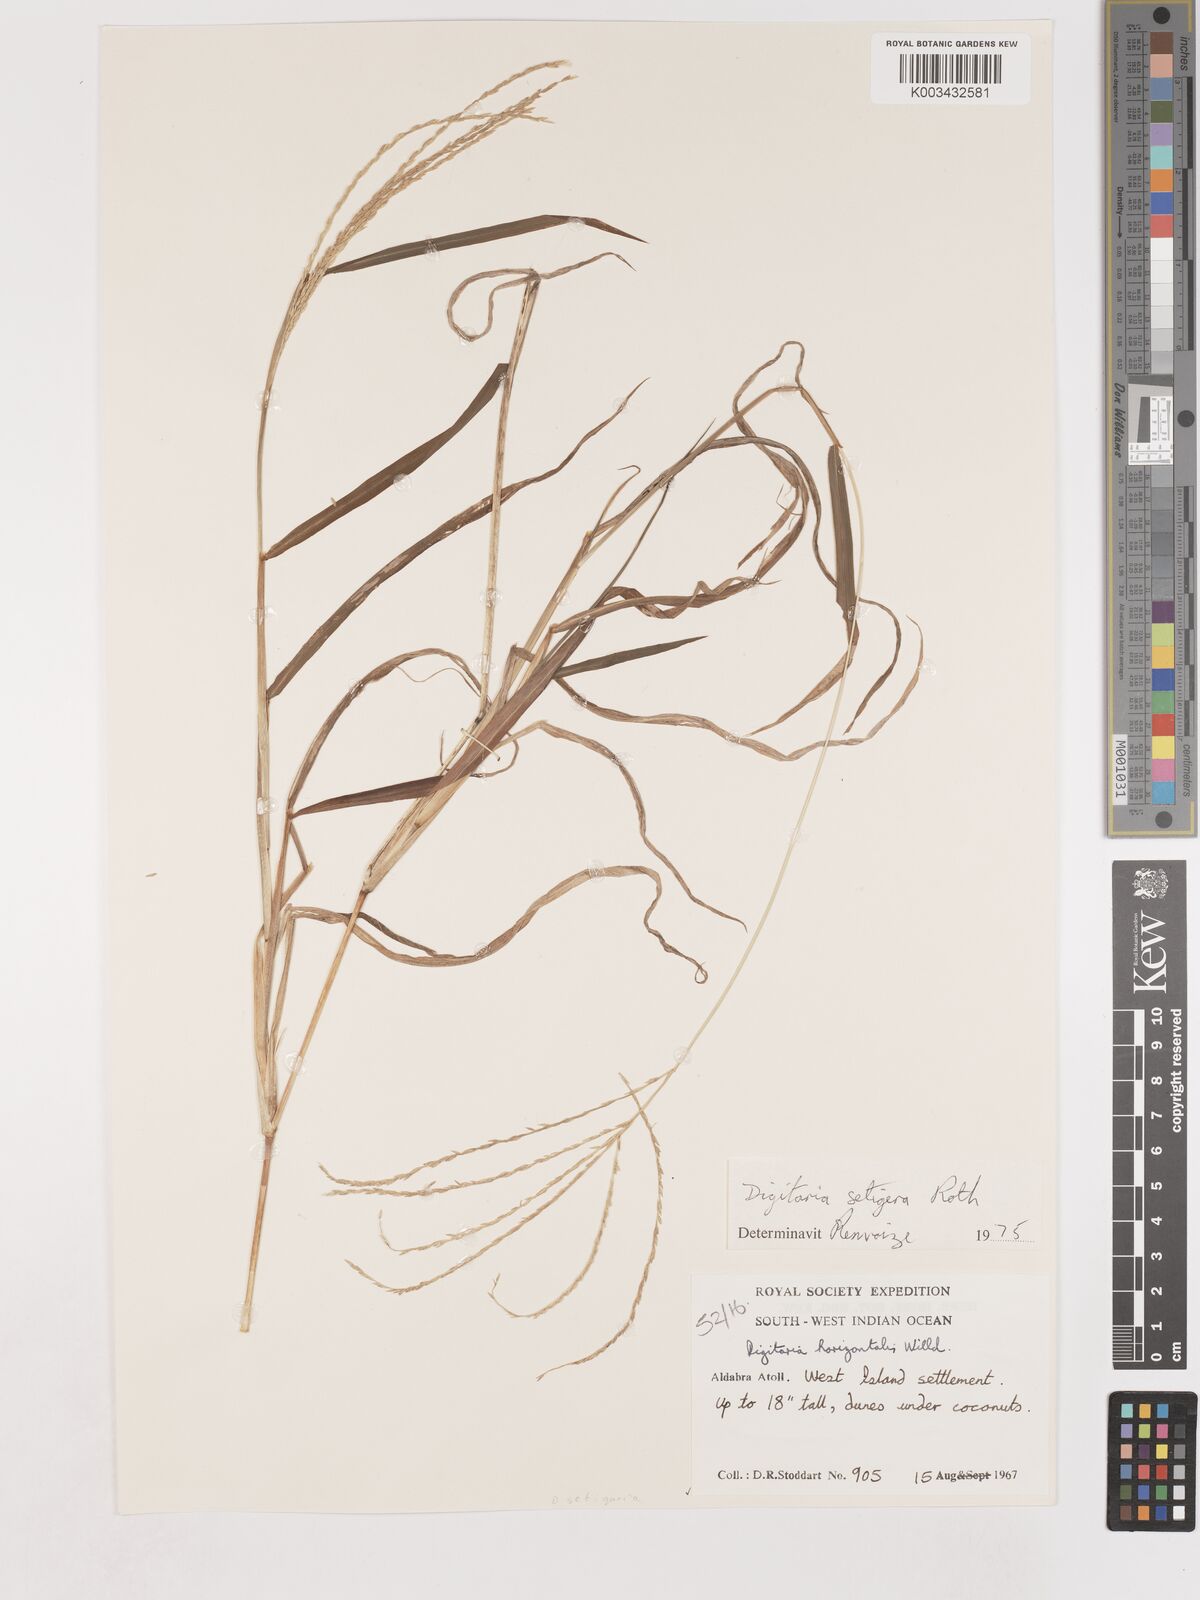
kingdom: Plantae
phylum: Tracheophyta
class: Liliopsida
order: Poales
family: Poaceae
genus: Digitaria
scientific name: Digitaria setigera
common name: East indian crabgrass
